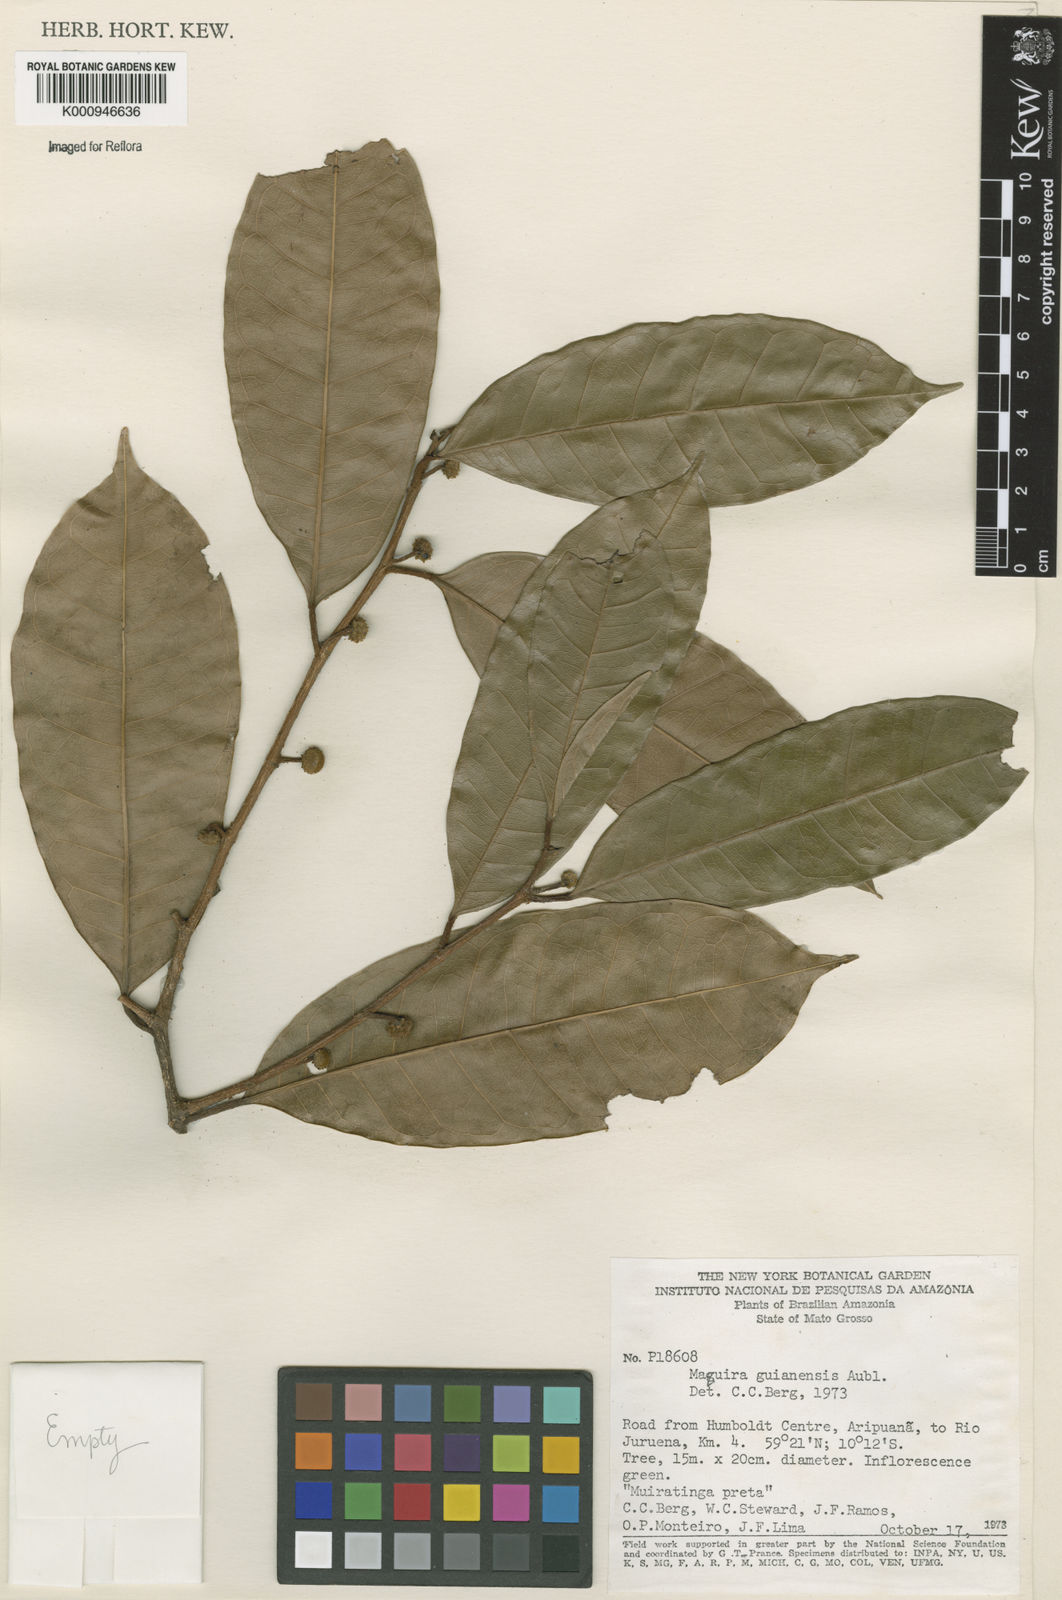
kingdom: Plantae
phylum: Tracheophyta
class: Magnoliopsida
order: Rosales
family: Moraceae
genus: Maquira
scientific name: Maquira guianensis
